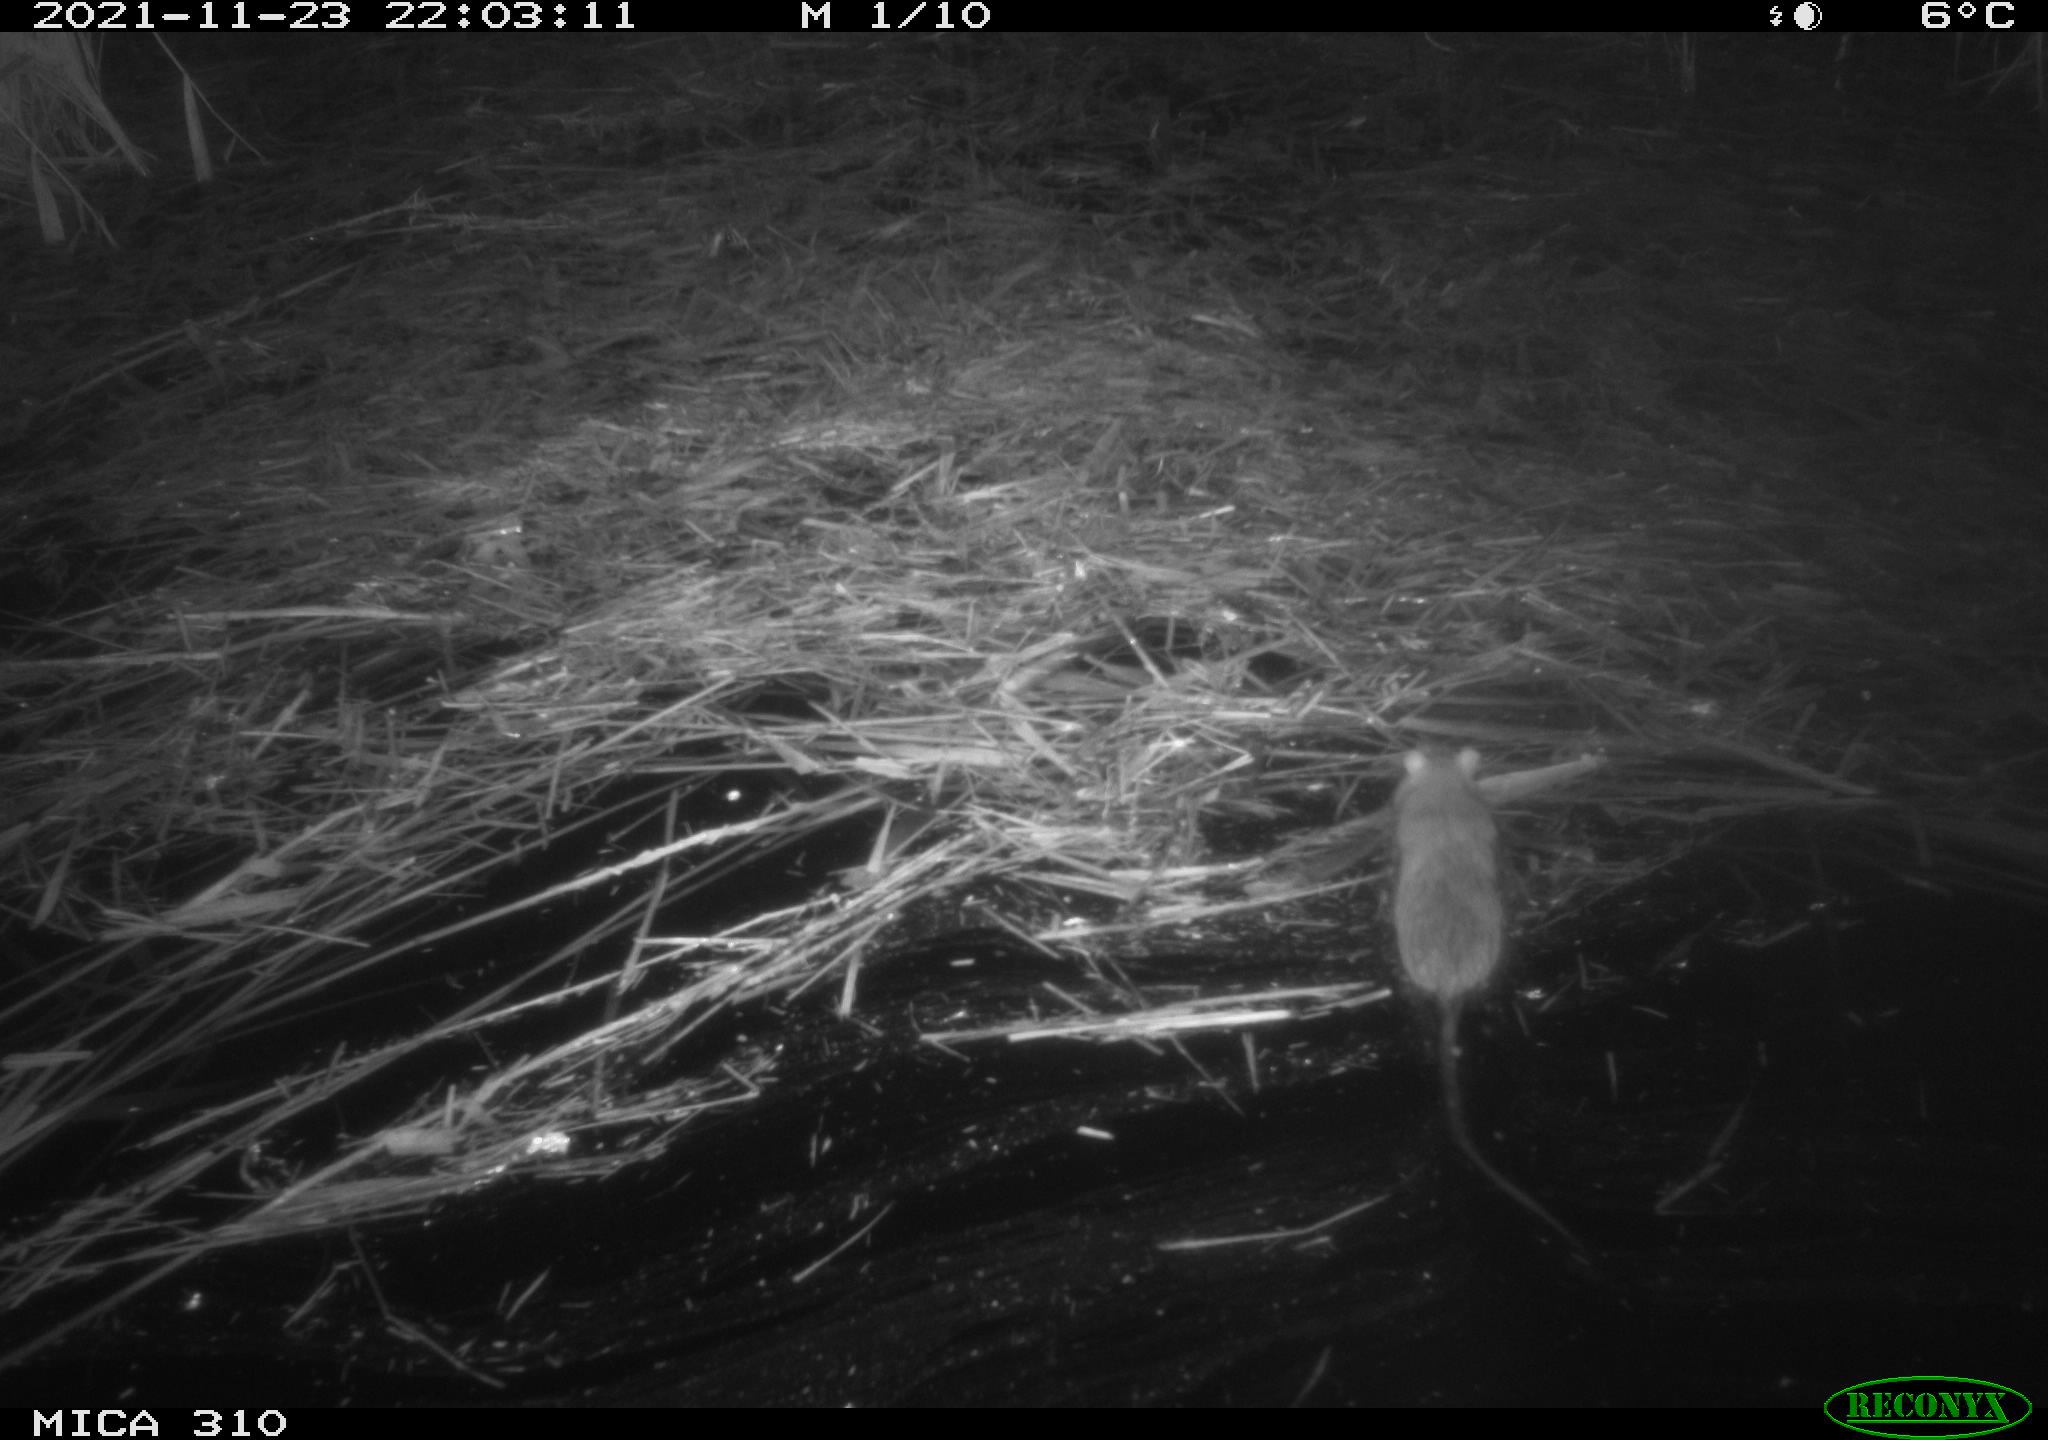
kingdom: Animalia
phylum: Chordata
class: Mammalia
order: Rodentia
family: Muridae
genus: Rattus
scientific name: Rattus norvegicus
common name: Brown rat
